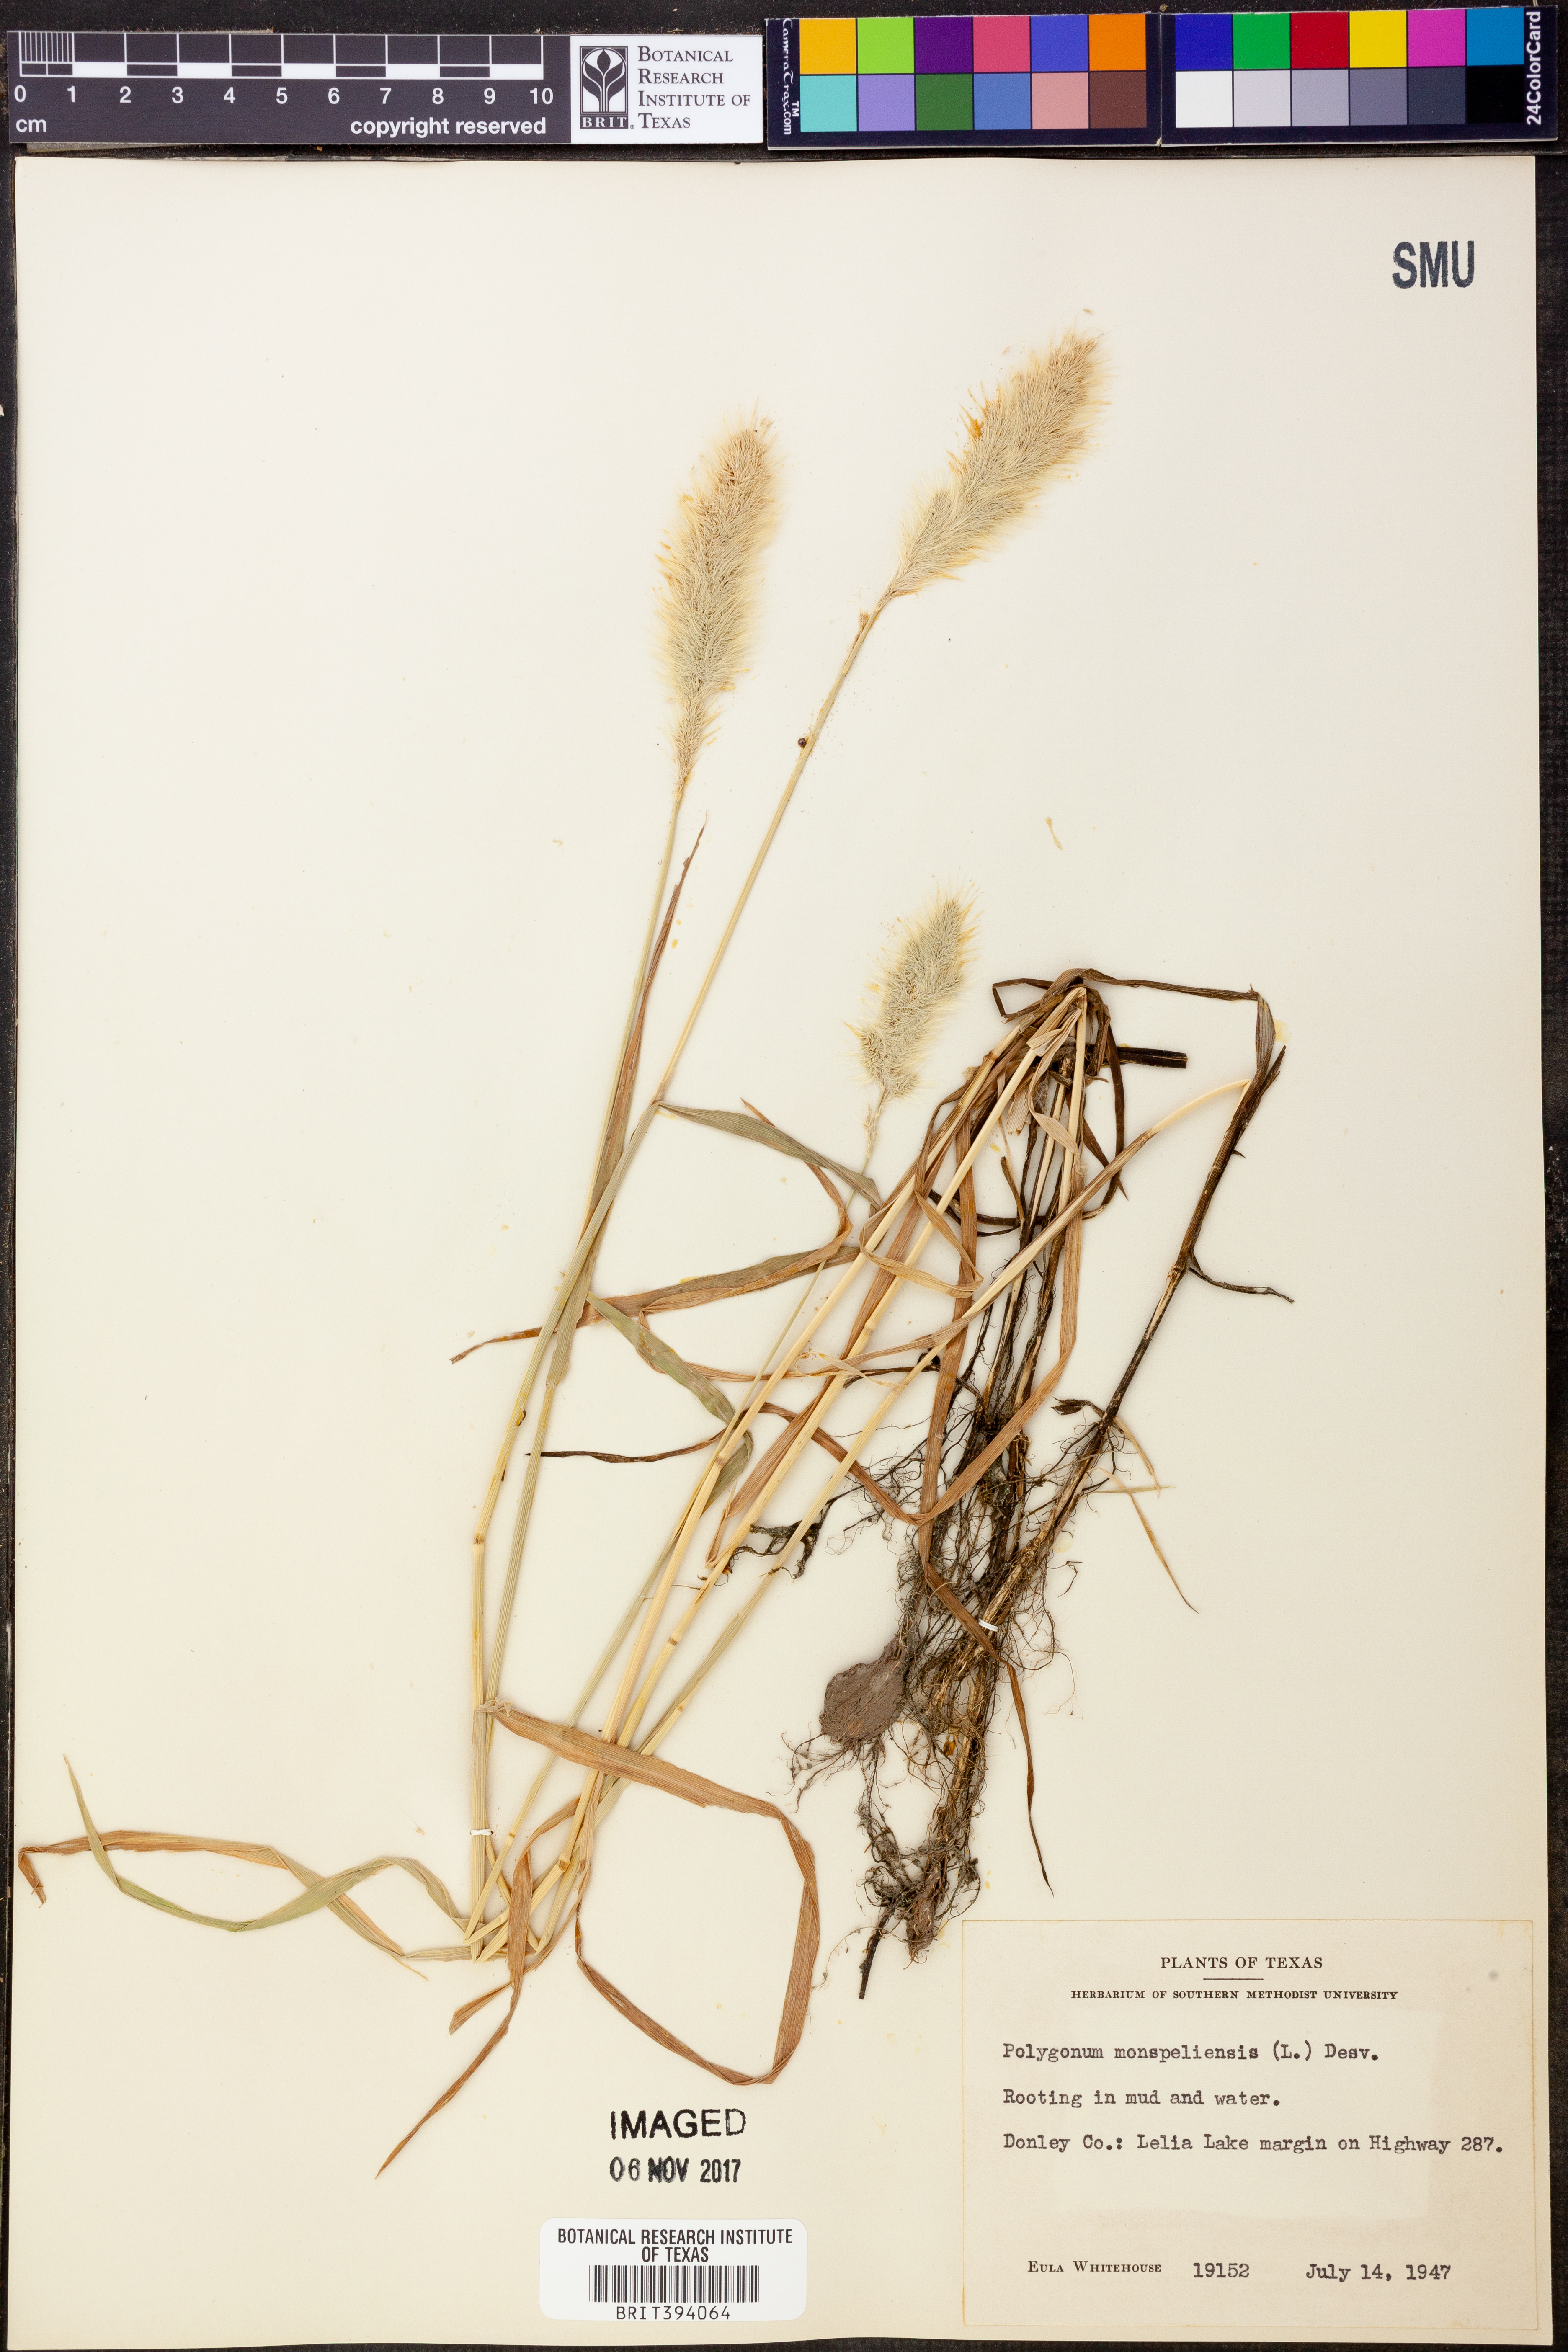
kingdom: Plantae
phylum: Tracheophyta
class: Magnoliopsida
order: Caryophyllales
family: Polygonaceae
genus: Polygonum
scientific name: Polygonum aviculare
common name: Prostrate knotweed
